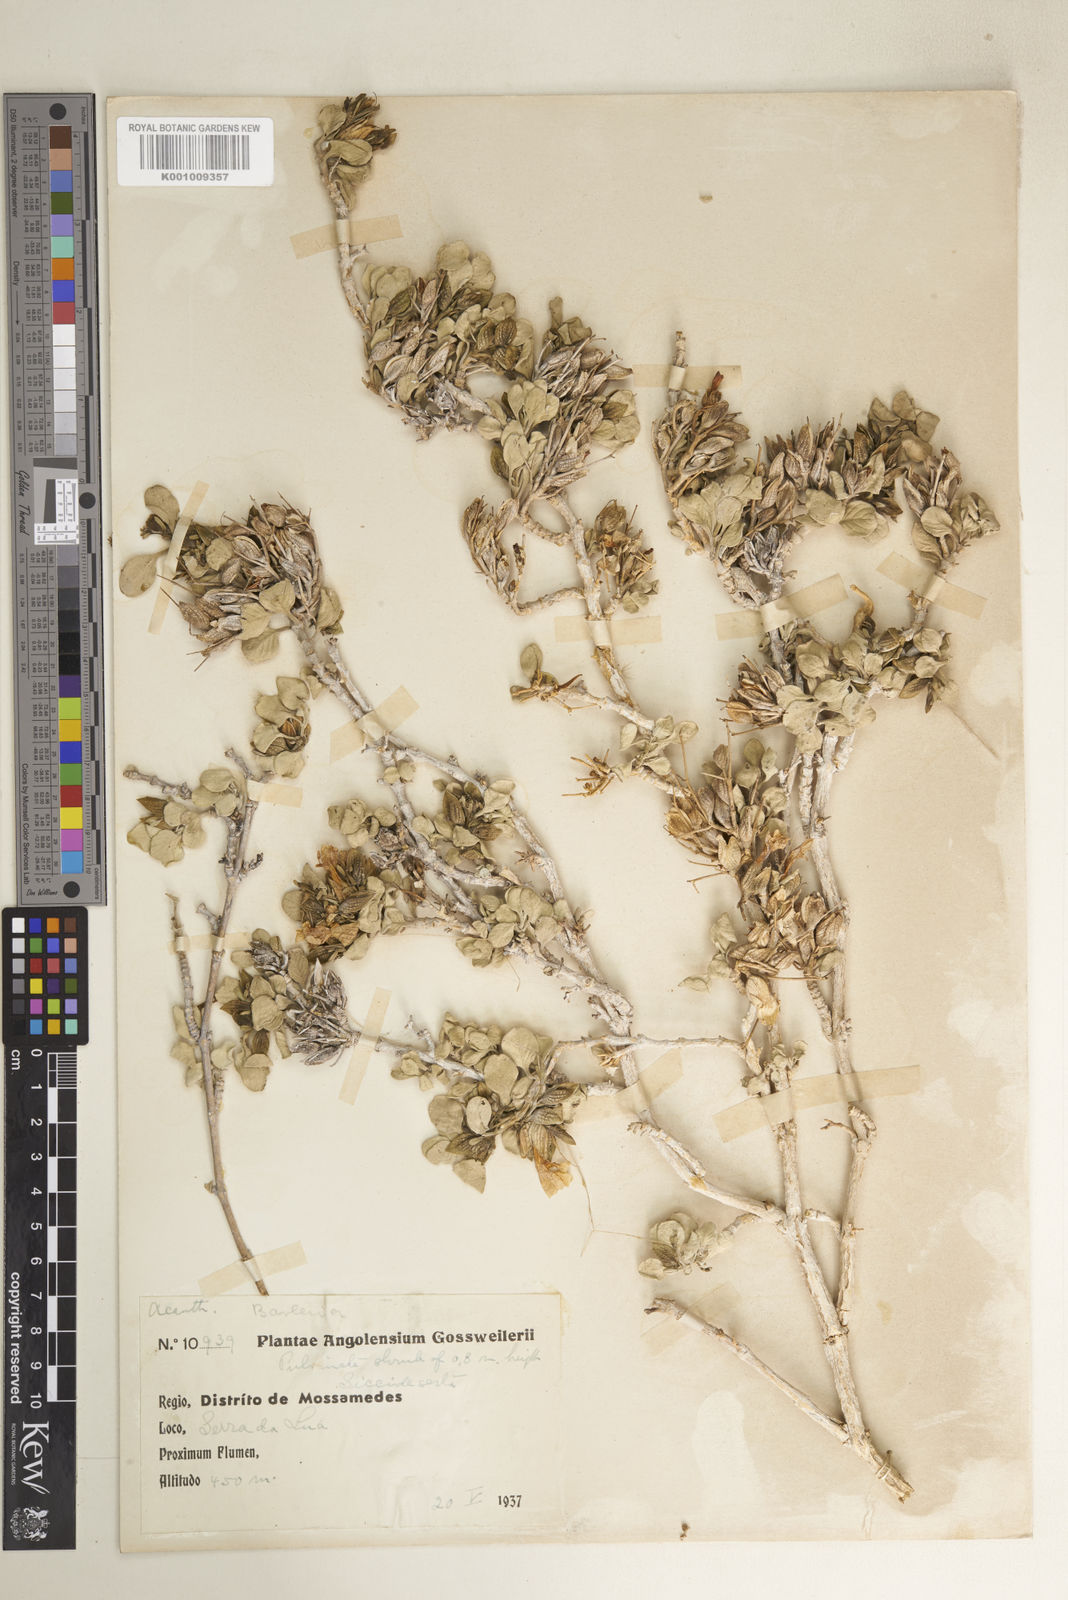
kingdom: Plantae
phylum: Tracheophyta
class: Magnoliopsida
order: Lamiales
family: Acanthaceae
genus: Petalidium
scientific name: Petalidium welwitschii
